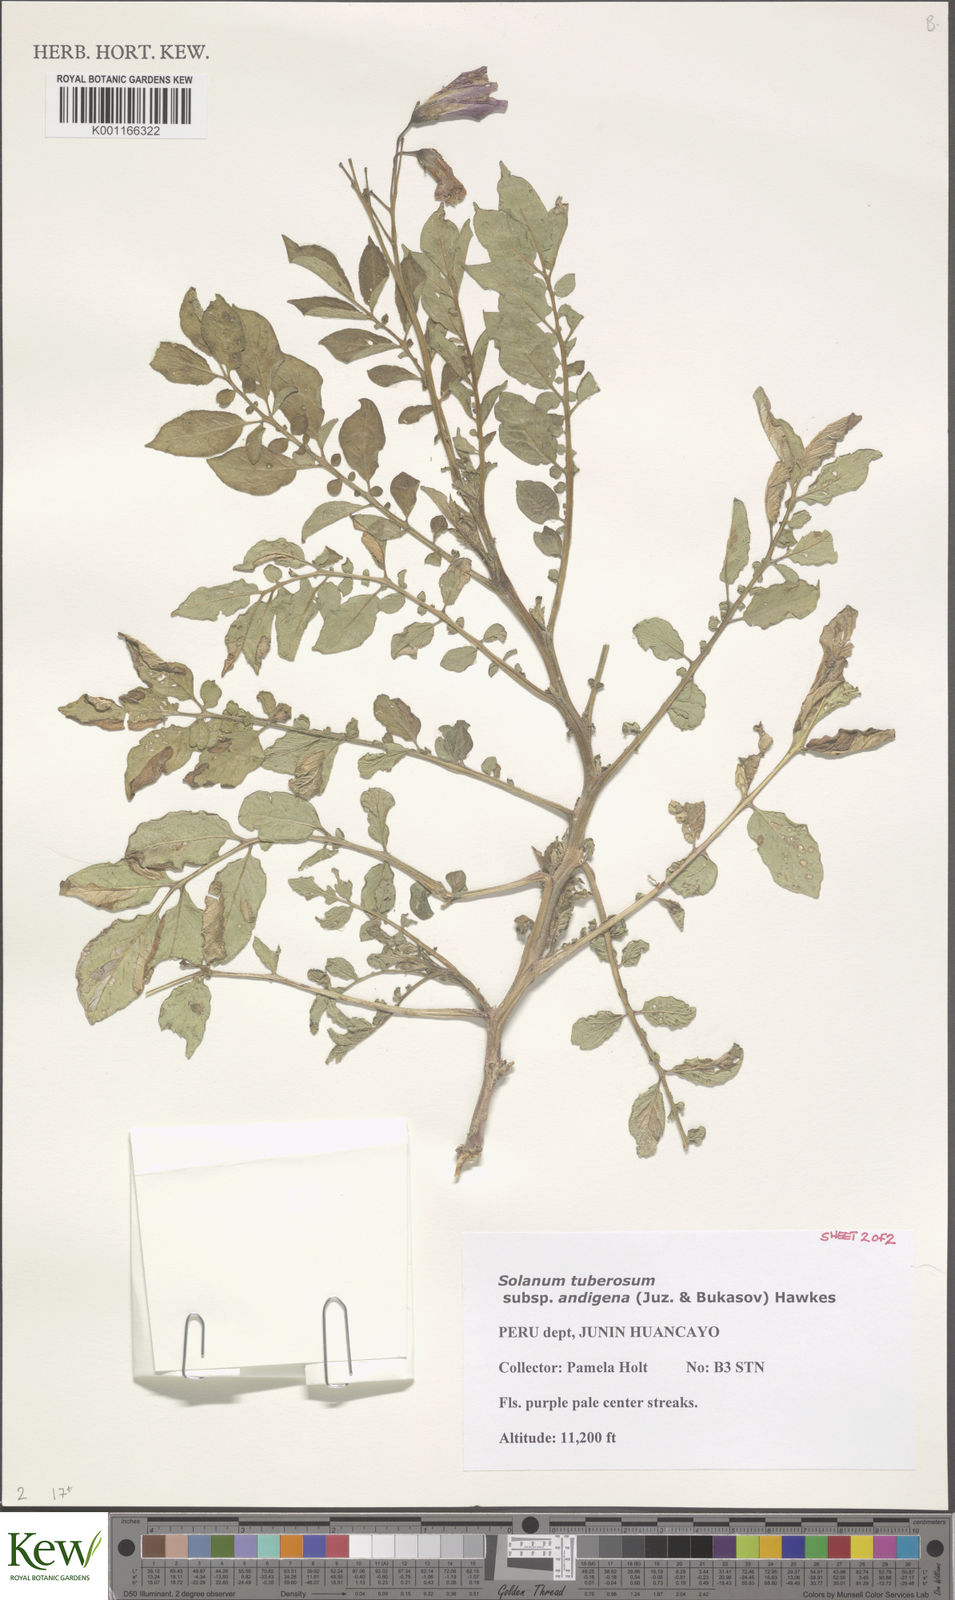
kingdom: Plantae
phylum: Tracheophyta
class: Magnoliopsida
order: Solanales
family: Solanaceae
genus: Solanum
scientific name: Solanum tuberosum
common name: Potato
